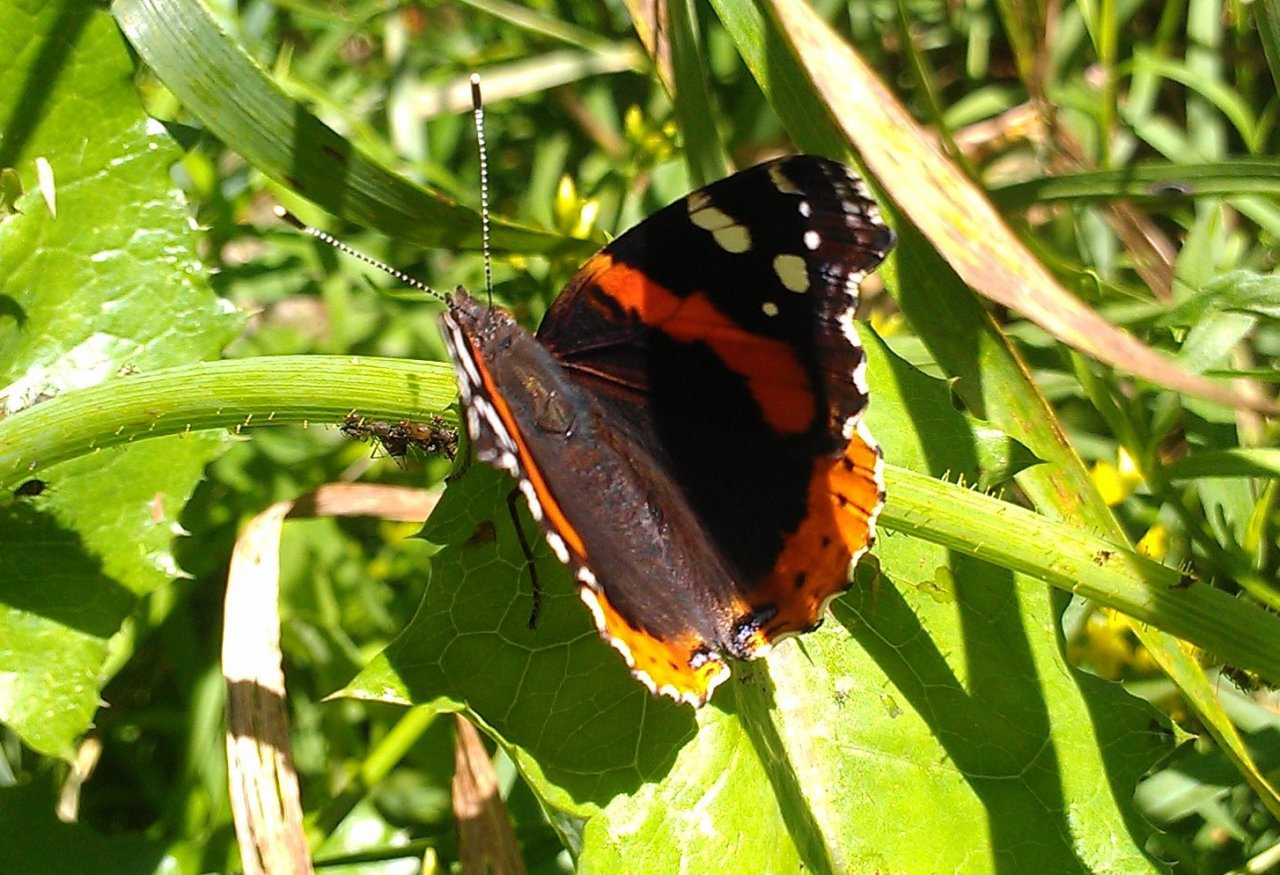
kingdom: Animalia
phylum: Arthropoda
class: Insecta
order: Lepidoptera
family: Nymphalidae
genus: Vanessa
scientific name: Vanessa atalanta
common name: Red Admiral
